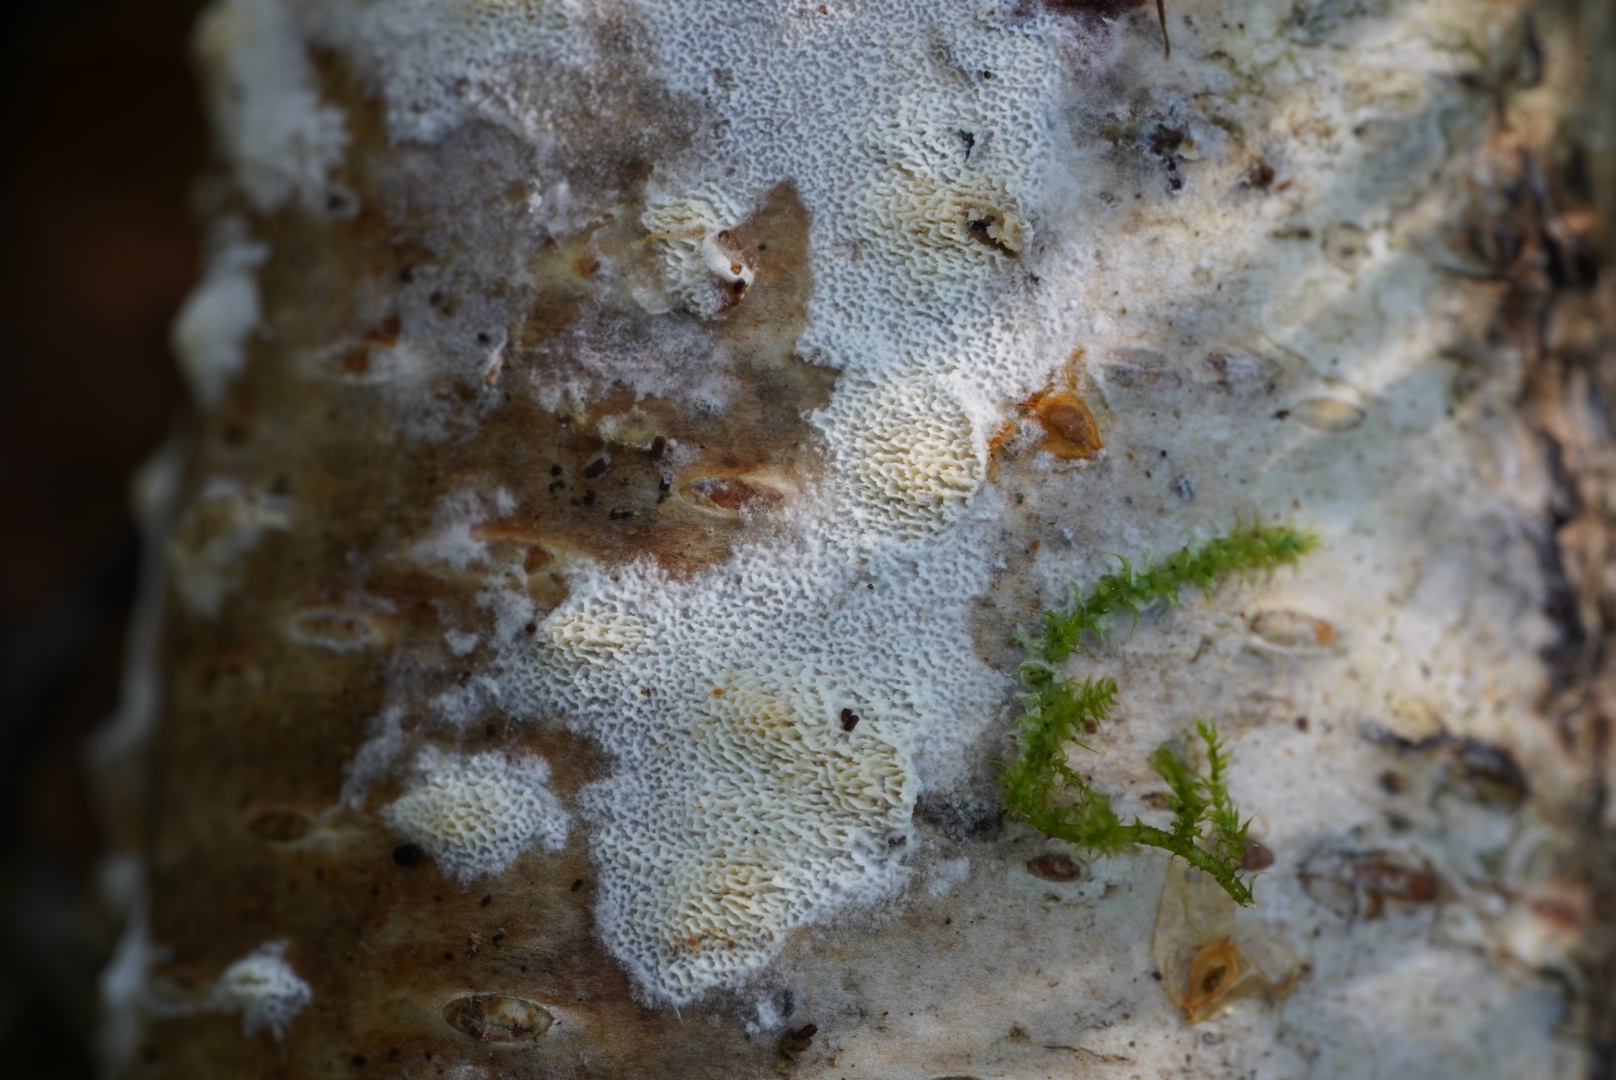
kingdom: Fungi
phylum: Basidiomycota
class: Agaricomycetes
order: Hymenochaetales
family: Schizoporaceae
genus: Xylodon
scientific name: Xylodon subtropicus
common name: labyrint-tandsvamp
